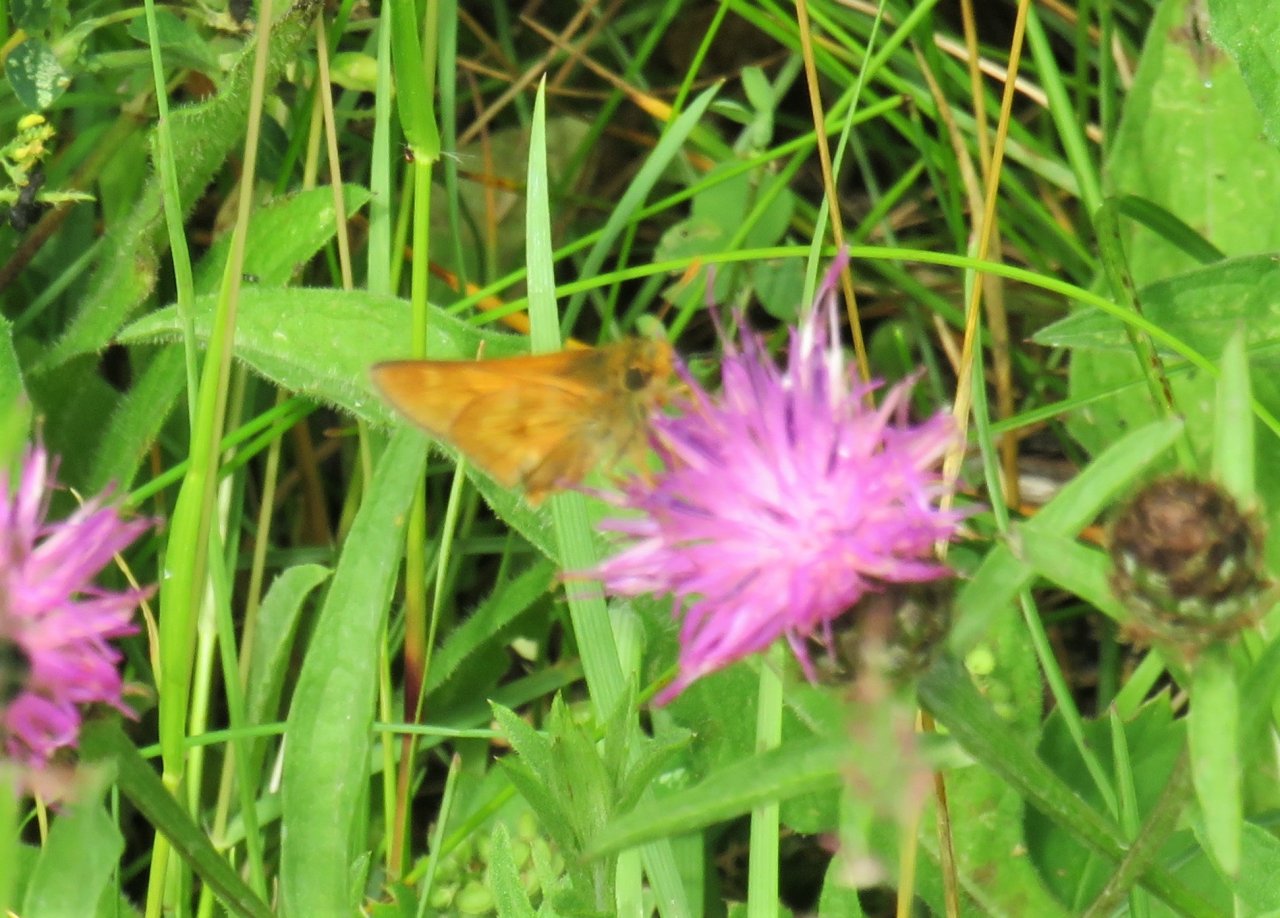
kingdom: Animalia
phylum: Arthropoda
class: Insecta
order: Lepidoptera
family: Hesperiidae
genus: Polites
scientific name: Polites
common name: Long Dash Skipper
